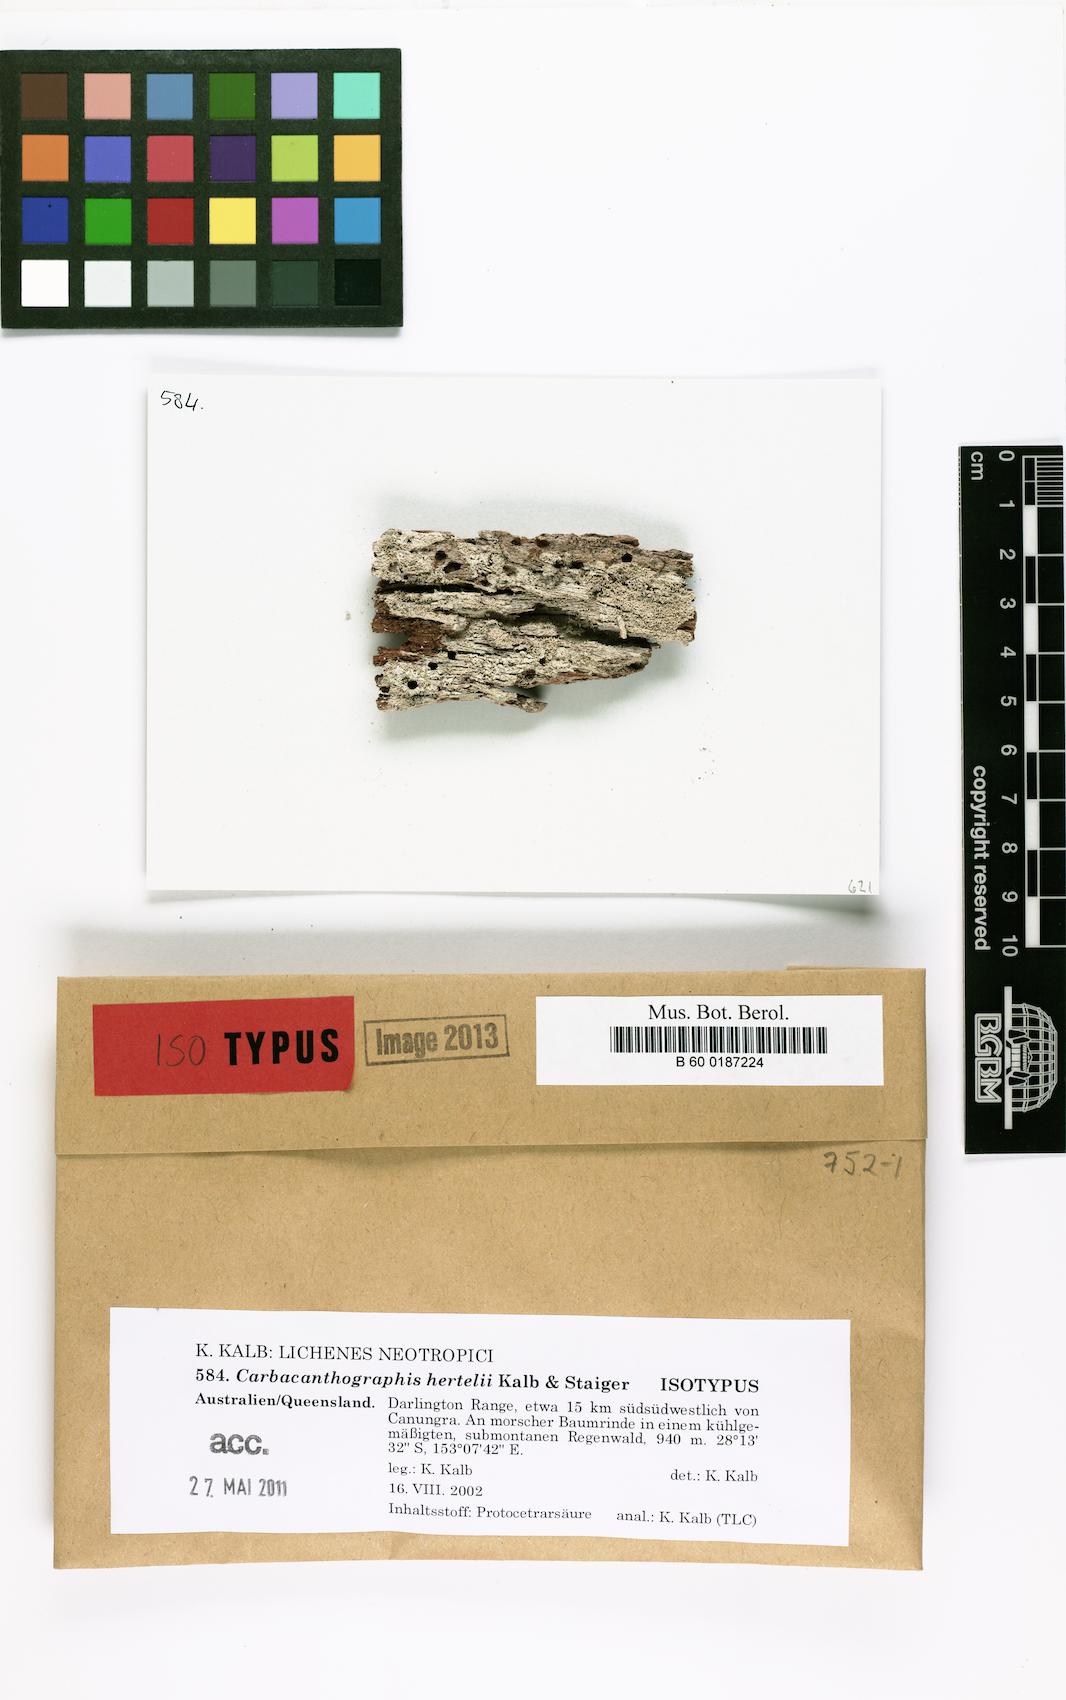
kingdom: Fungi
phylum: Ascomycota
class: Lecanoromycetes
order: Ostropales
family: Graphidaceae
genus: Carbacanthographis
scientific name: Carbacanthographis hertelii
